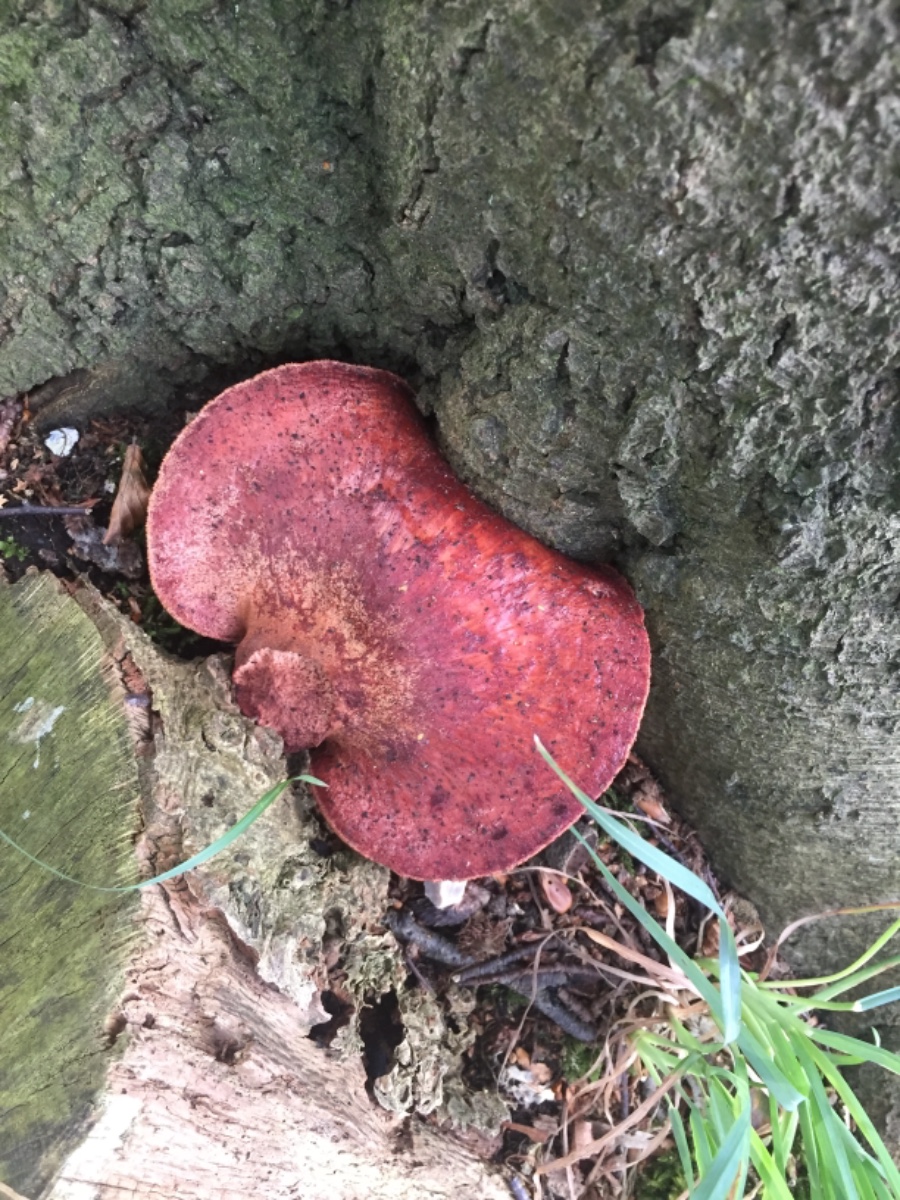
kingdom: Fungi
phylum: Basidiomycota
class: Agaricomycetes
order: Agaricales
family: Fistulinaceae
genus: Fistulina
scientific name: Fistulina hepatica
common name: oksetunge
